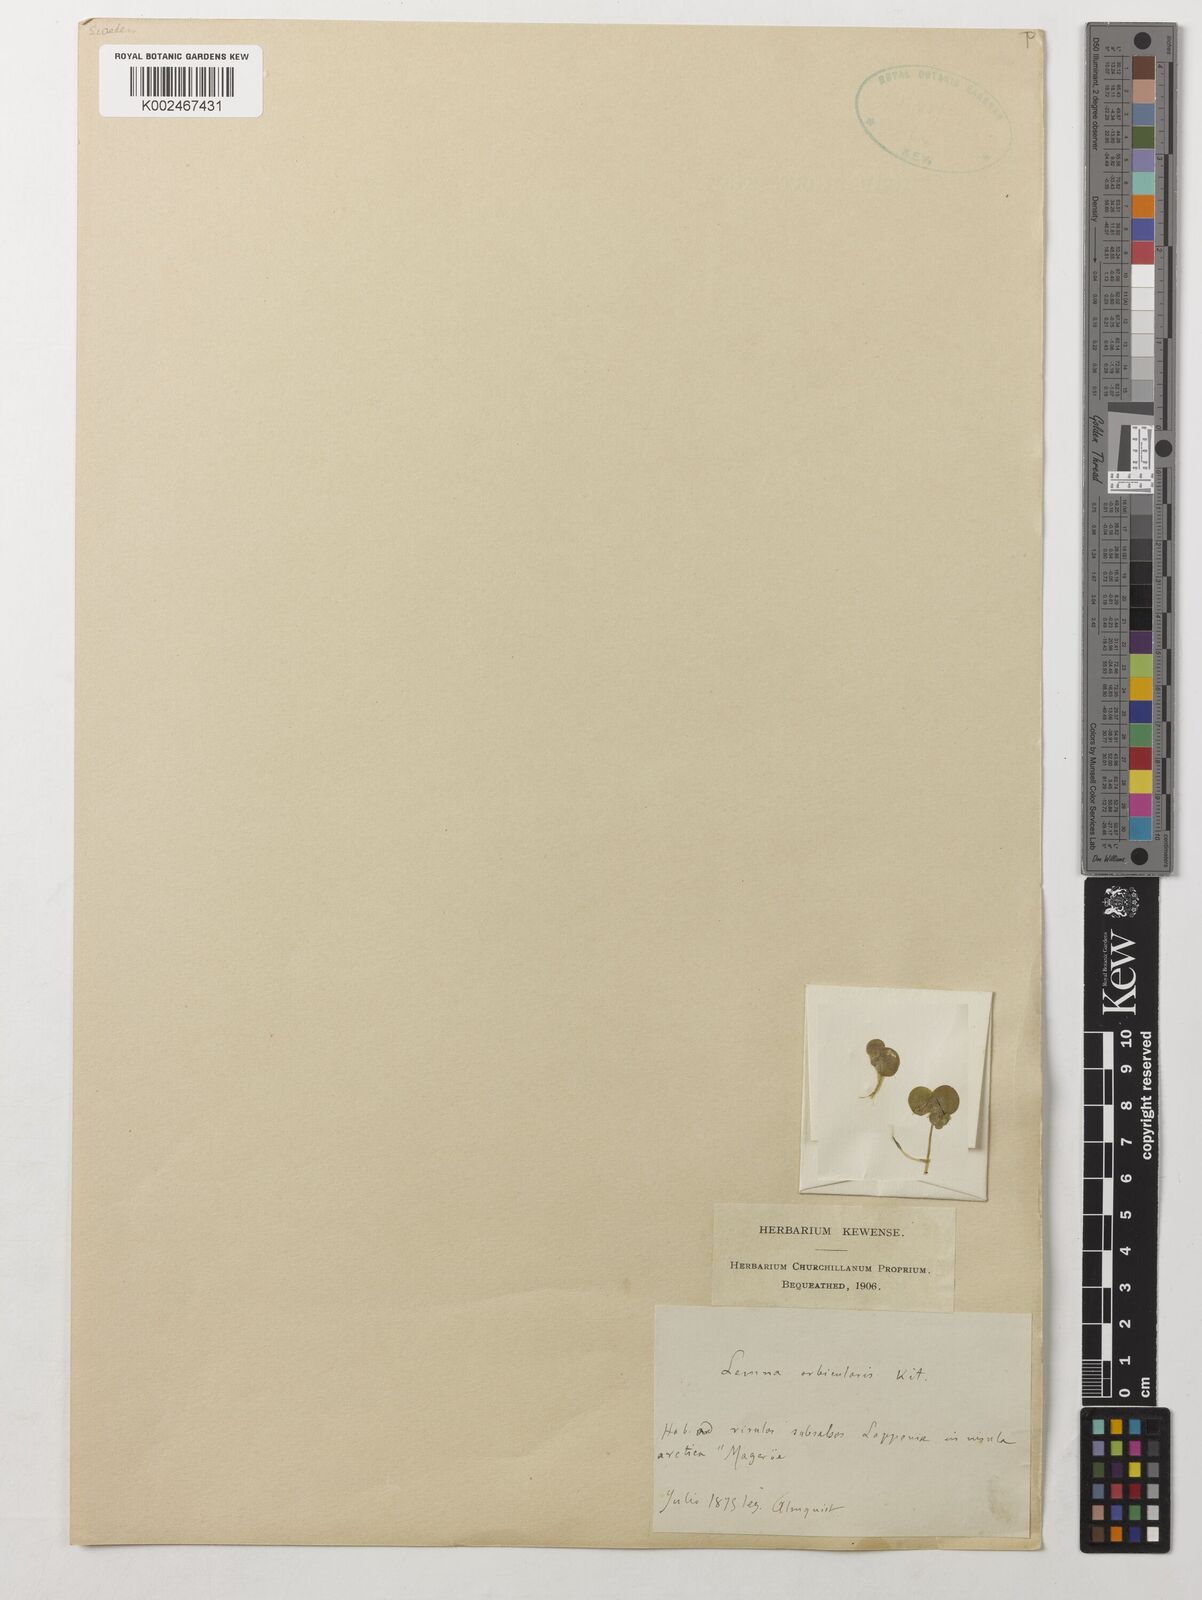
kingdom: Plantae
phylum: Tracheophyta
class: Liliopsida
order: Alismatales
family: Araceae
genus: Spirodela
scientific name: Spirodela polyrhiza
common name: Great duckweed
